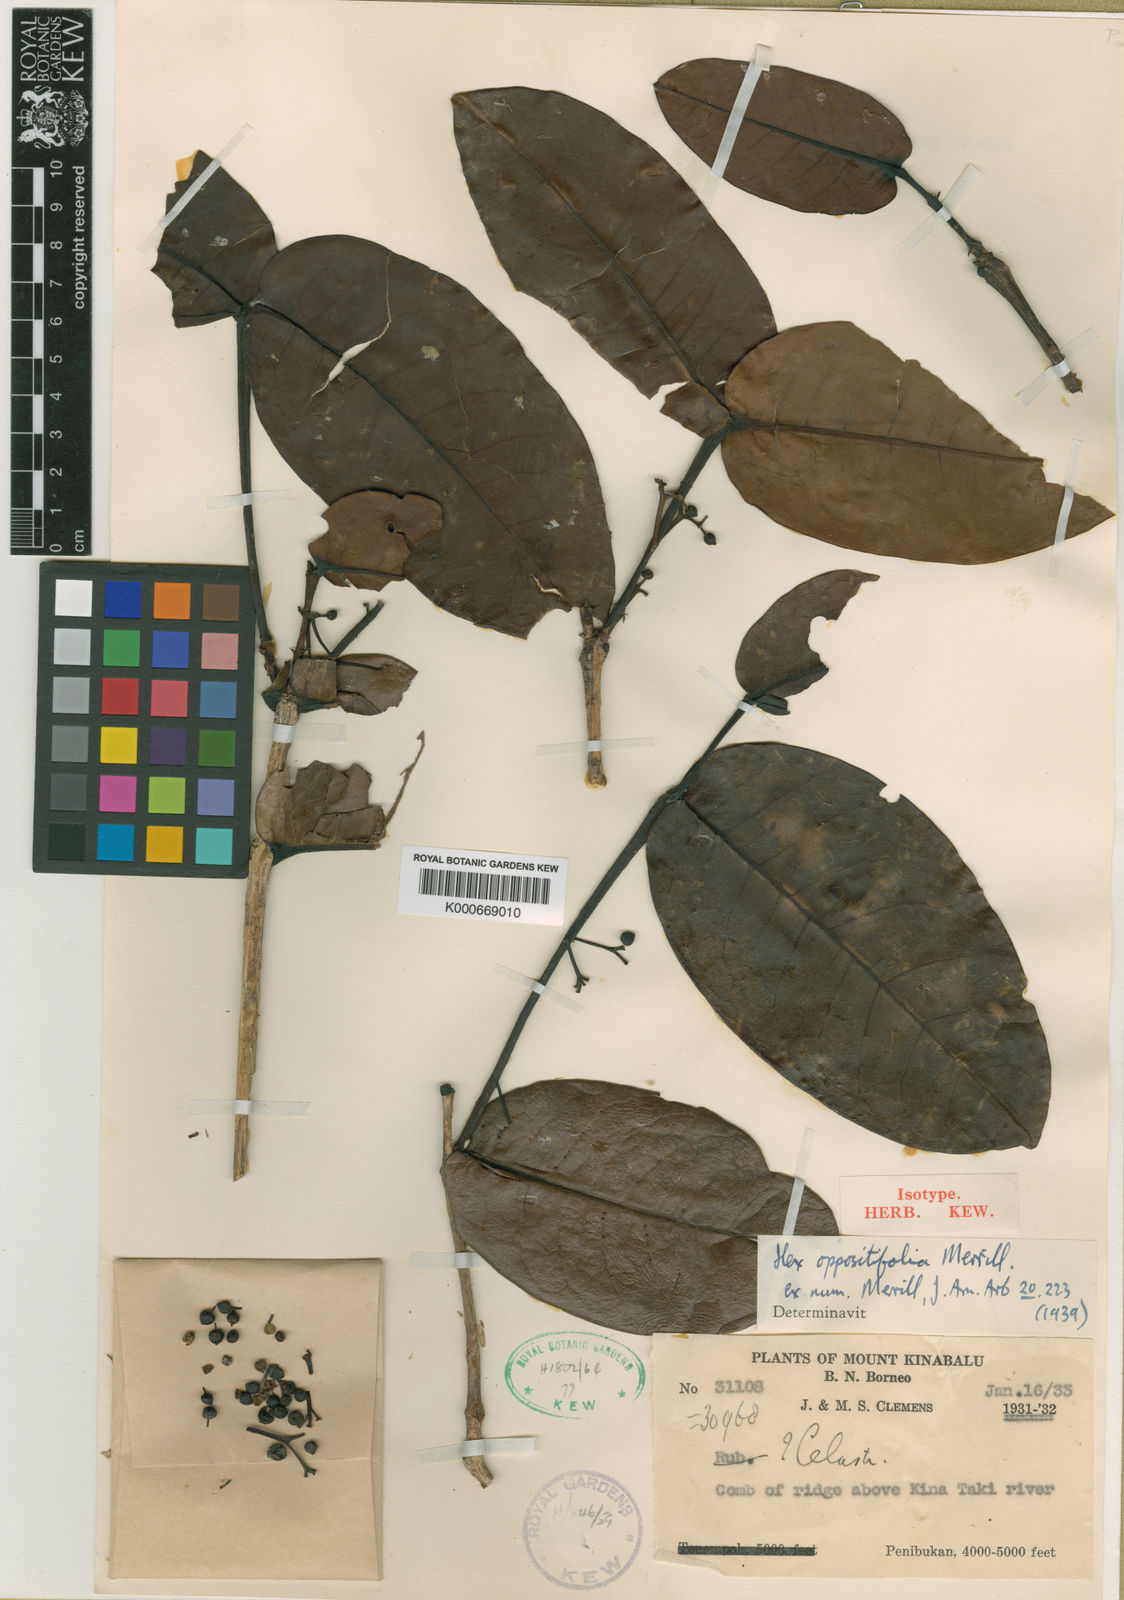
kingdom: Plantae
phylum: Tracheophyta
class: Magnoliopsida
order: Aquifoliales
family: Aquifoliaceae
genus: Ilex
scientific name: Ilex oppositifolia
